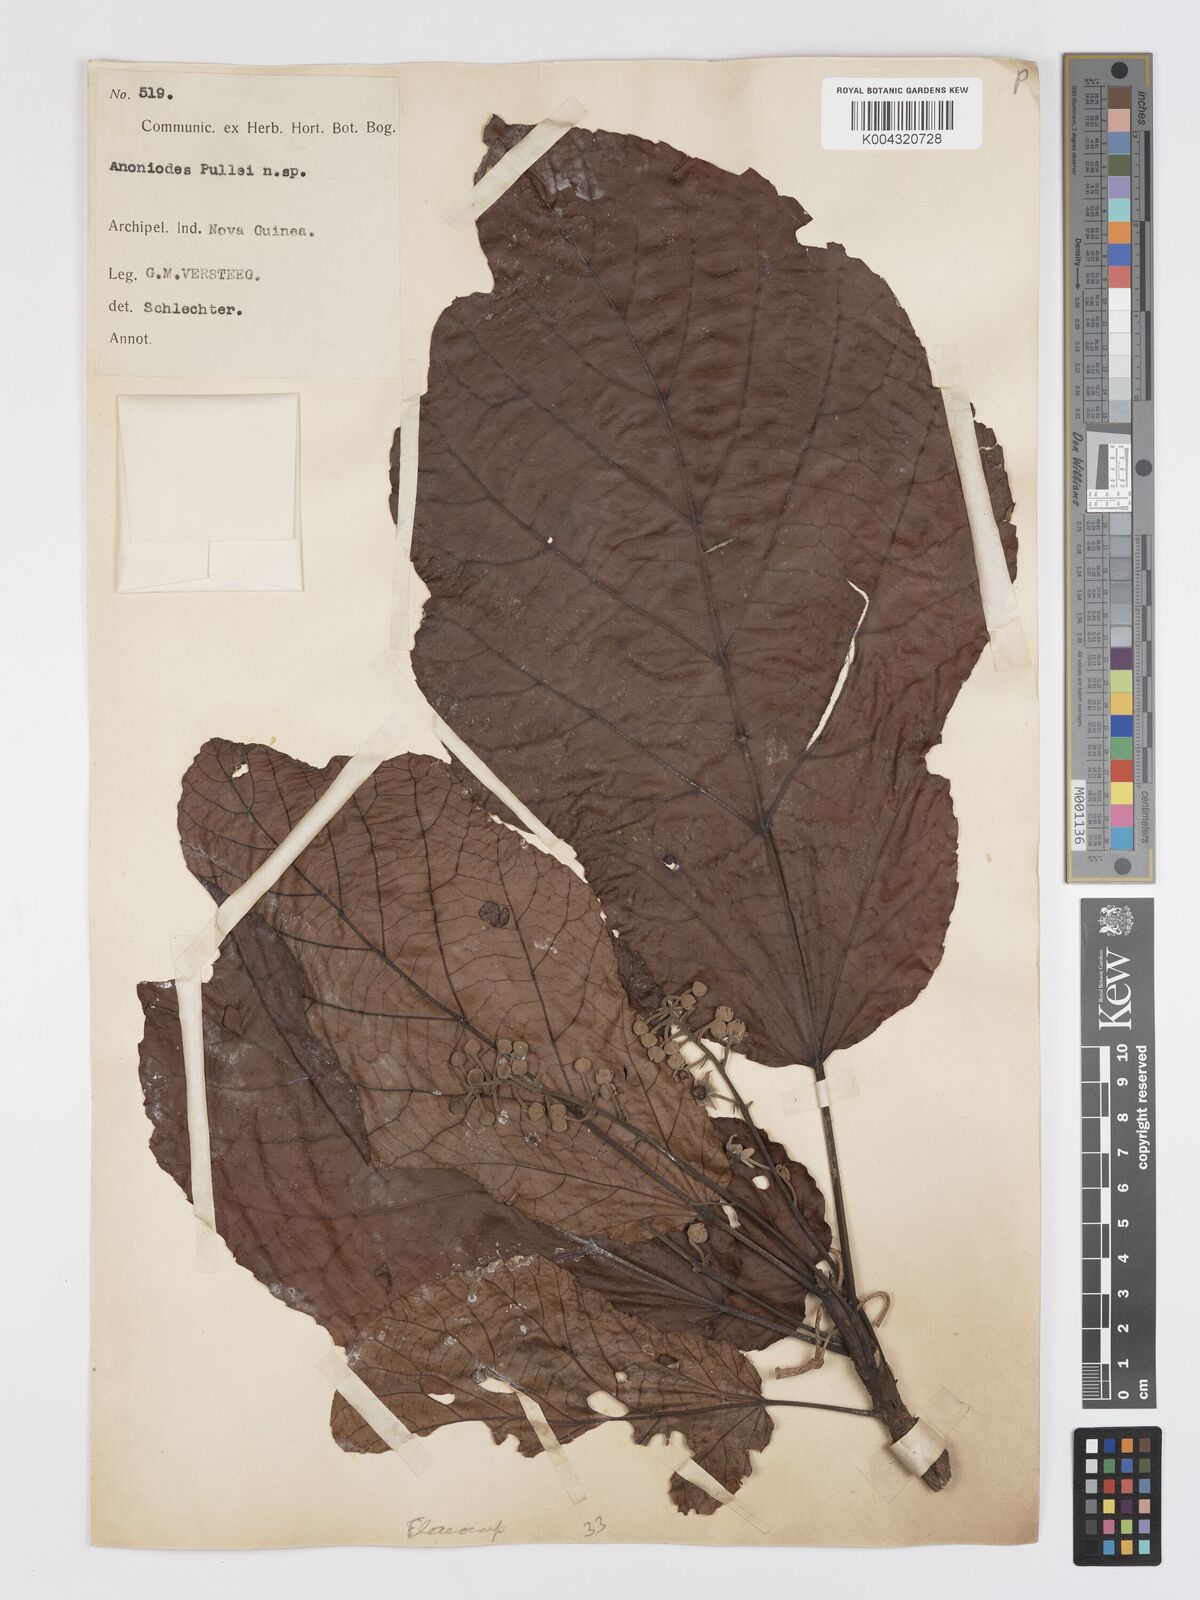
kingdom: Plantae
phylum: Tracheophyta
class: Magnoliopsida
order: Oxalidales
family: Elaeocarpaceae
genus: Sloanea
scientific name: Sloanea pullei
